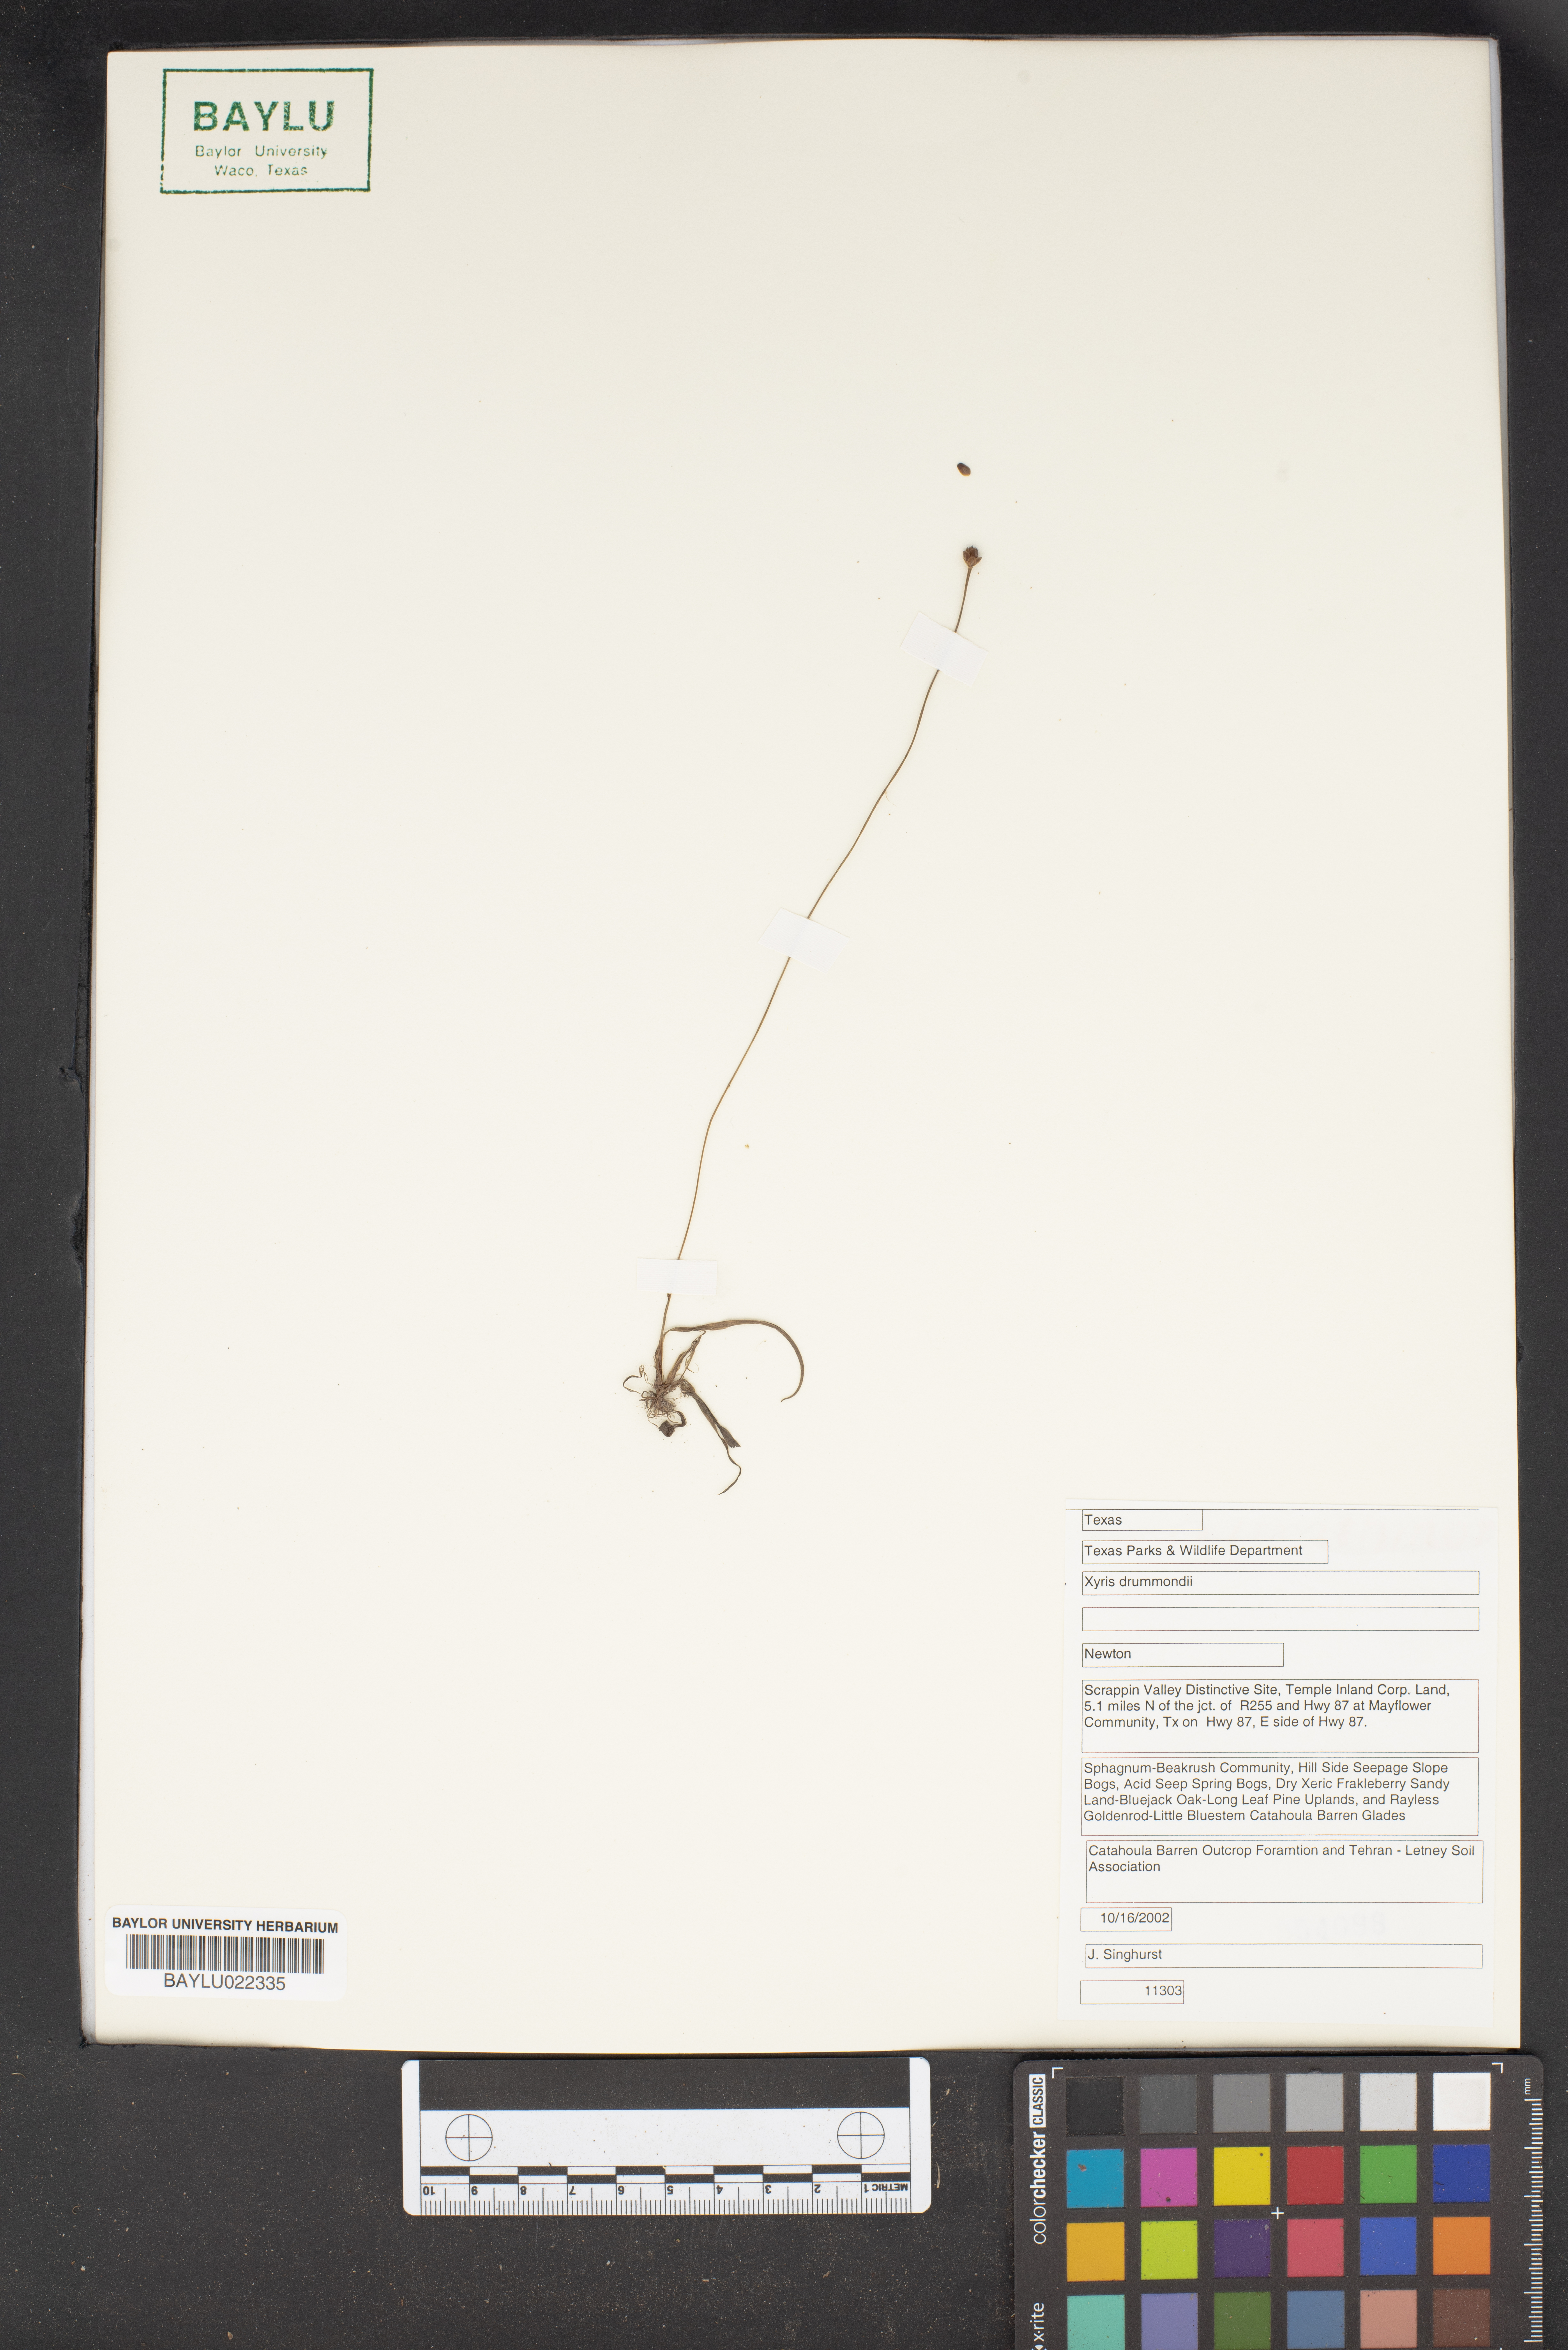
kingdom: Plantae
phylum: Tracheophyta
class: Liliopsida
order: Poales
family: Xyridaceae
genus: Xyris
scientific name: Xyris drummondii
